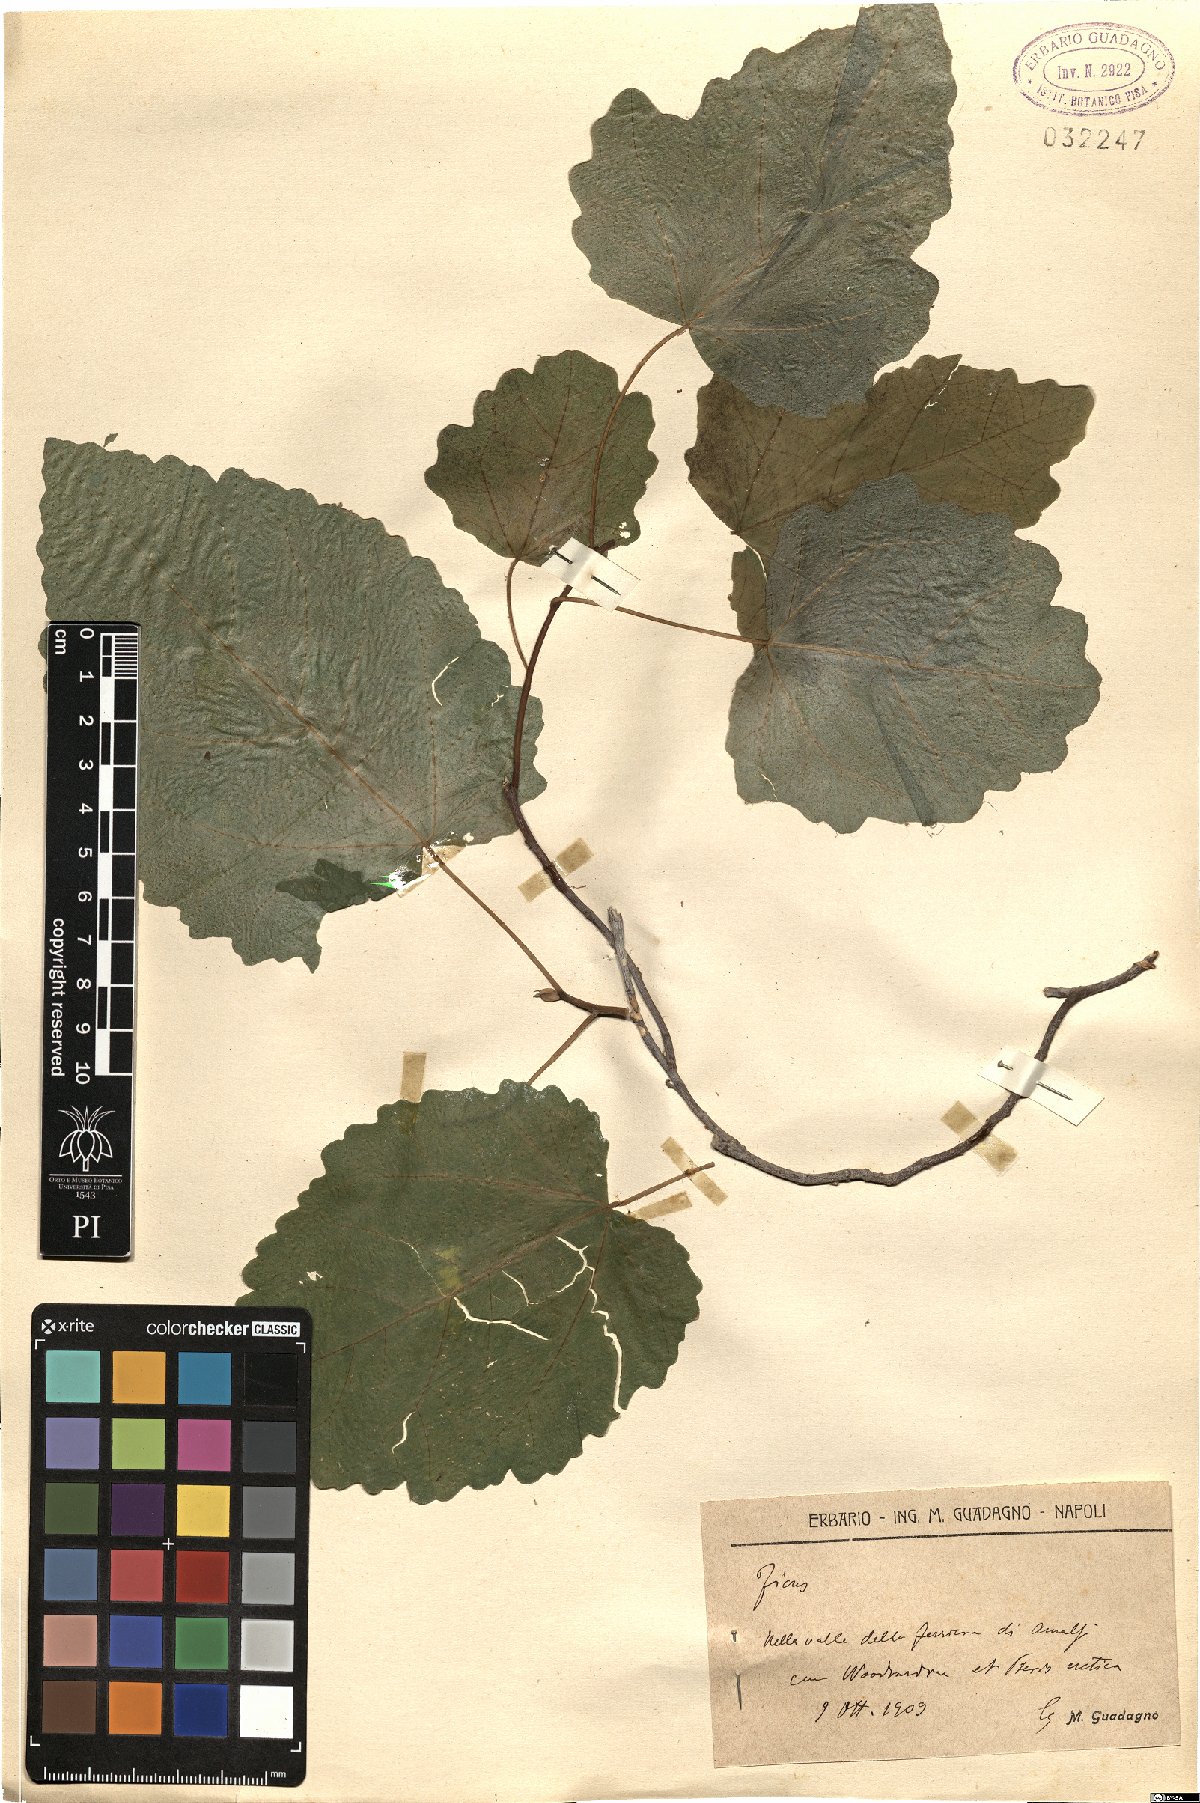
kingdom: Plantae
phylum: Tracheophyta
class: Magnoliopsida
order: Rosales
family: Moraceae
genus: Ficus
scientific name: Ficus
